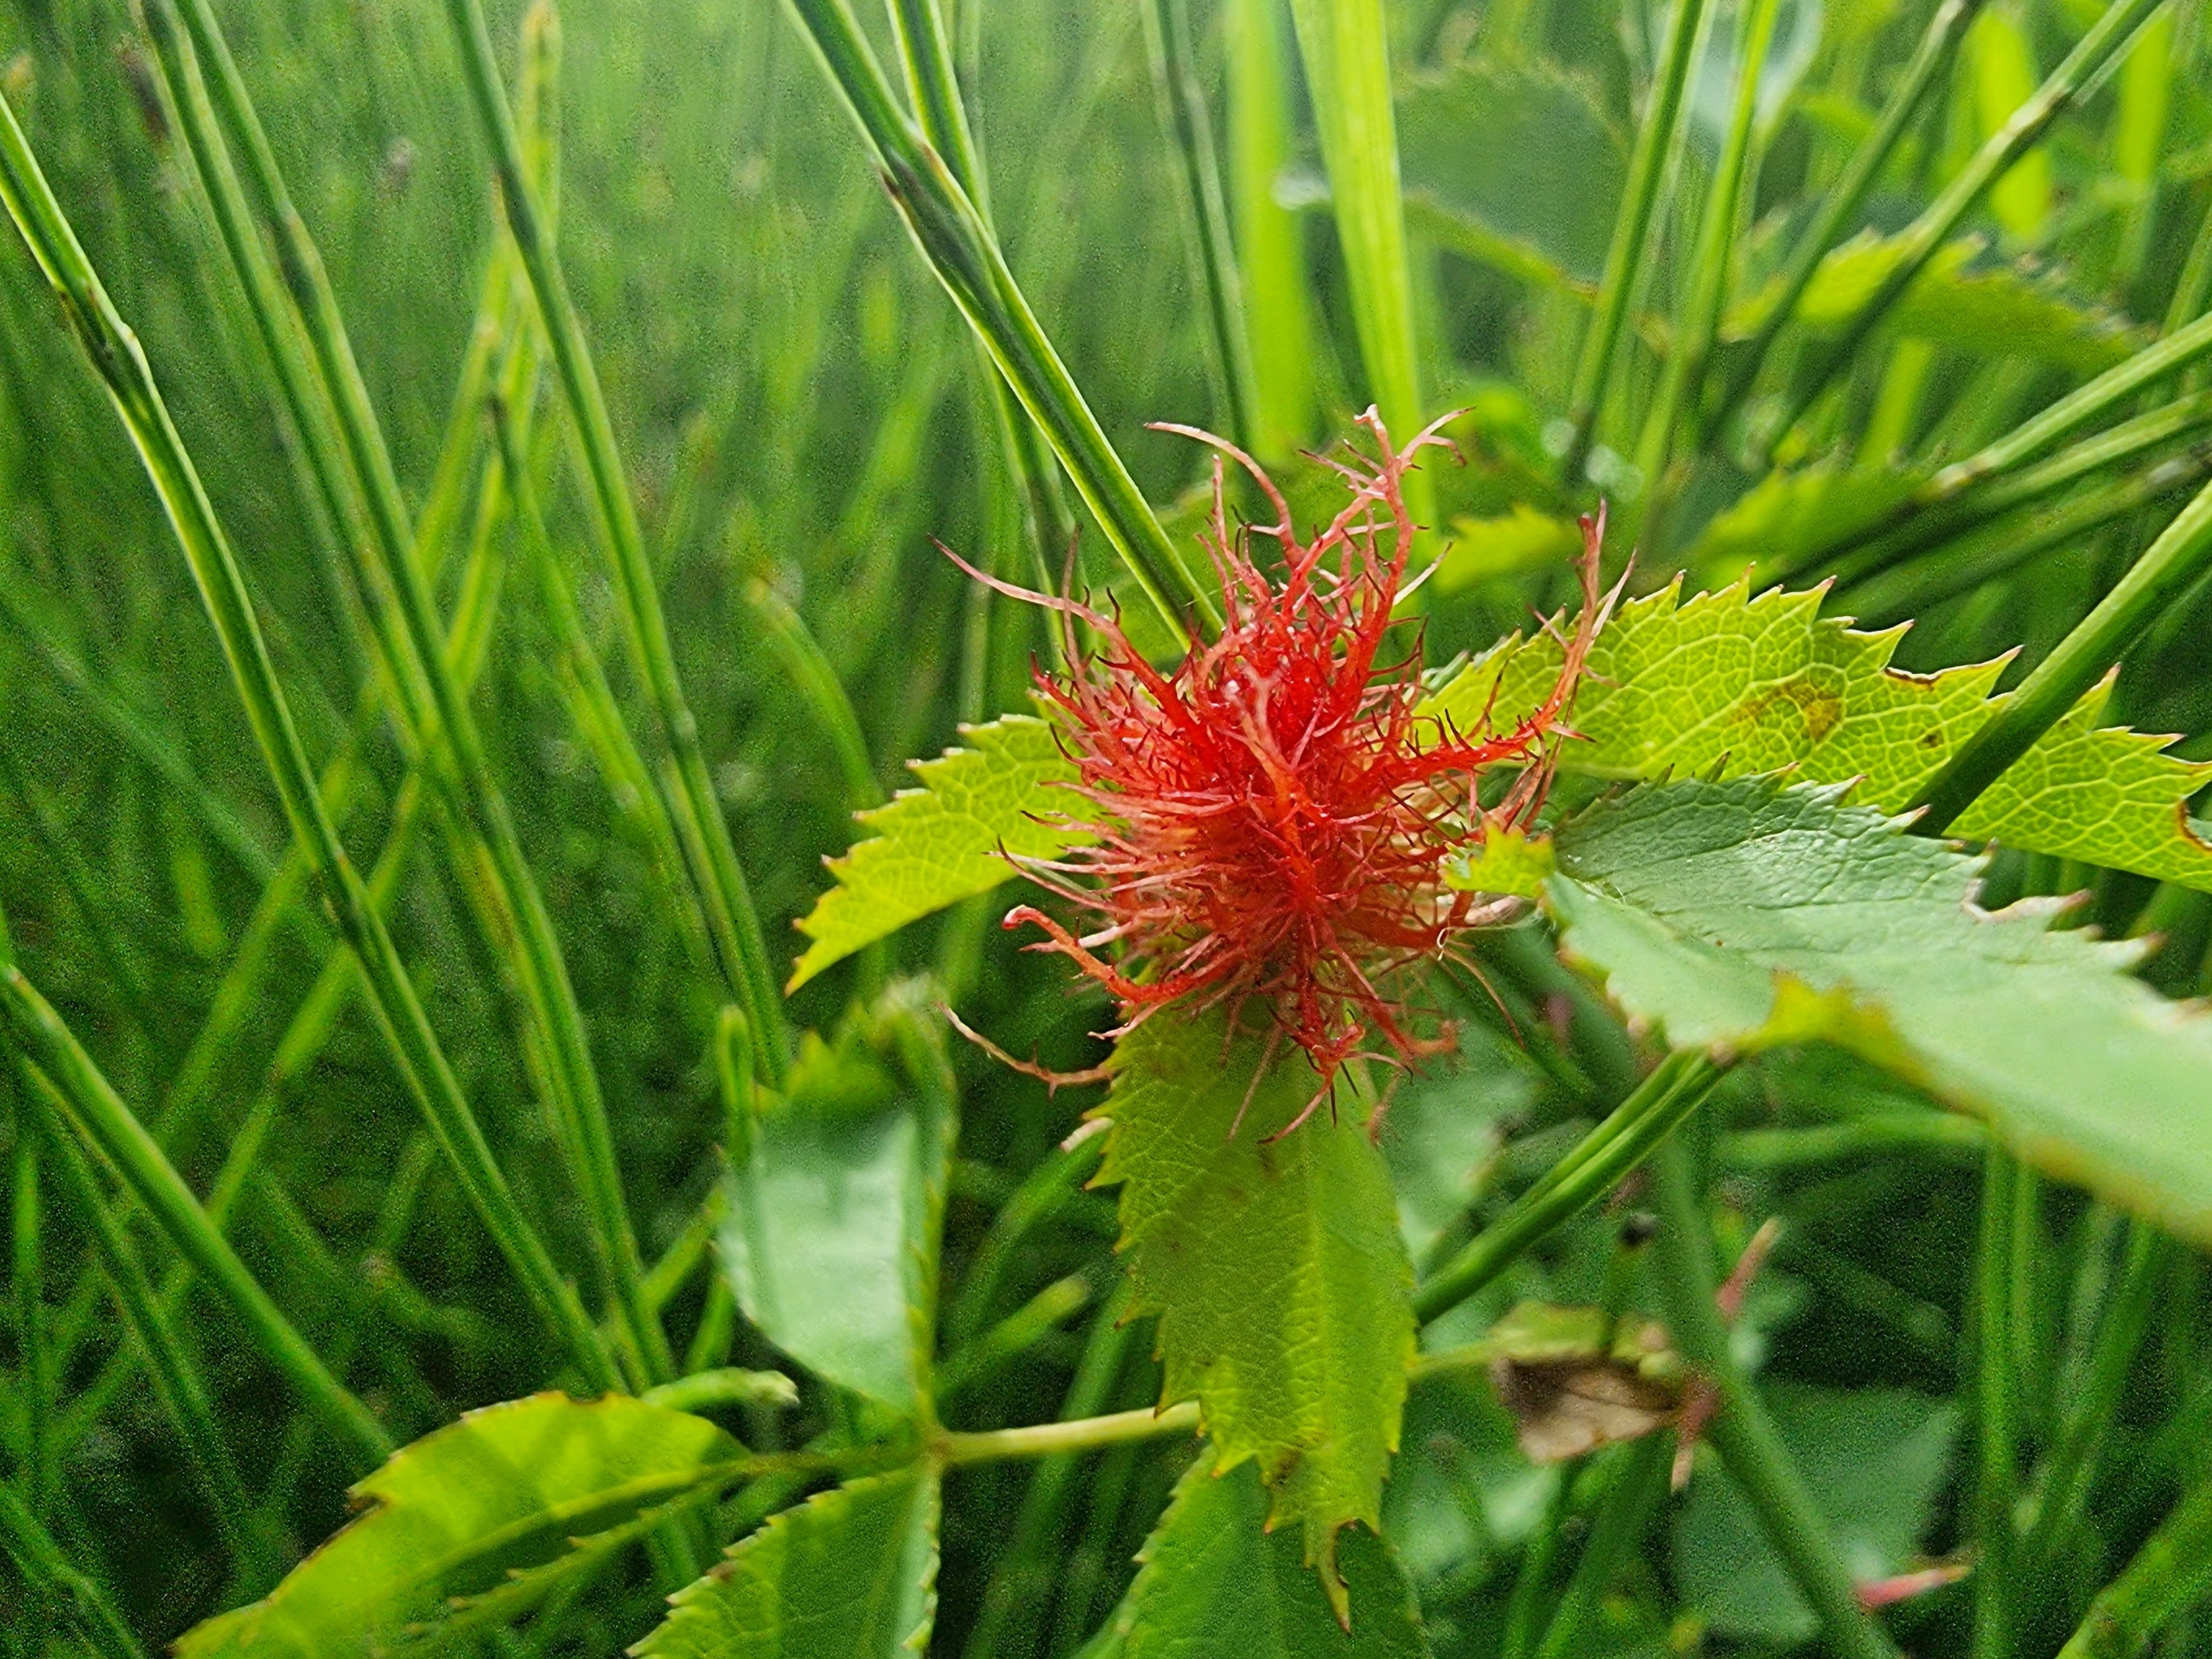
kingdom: Animalia
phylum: Arthropoda
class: Insecta
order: Hymenoptera
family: Cynipidae
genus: Diplolepis
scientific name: Diplolepis rosae
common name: Bedeguargalhveps
